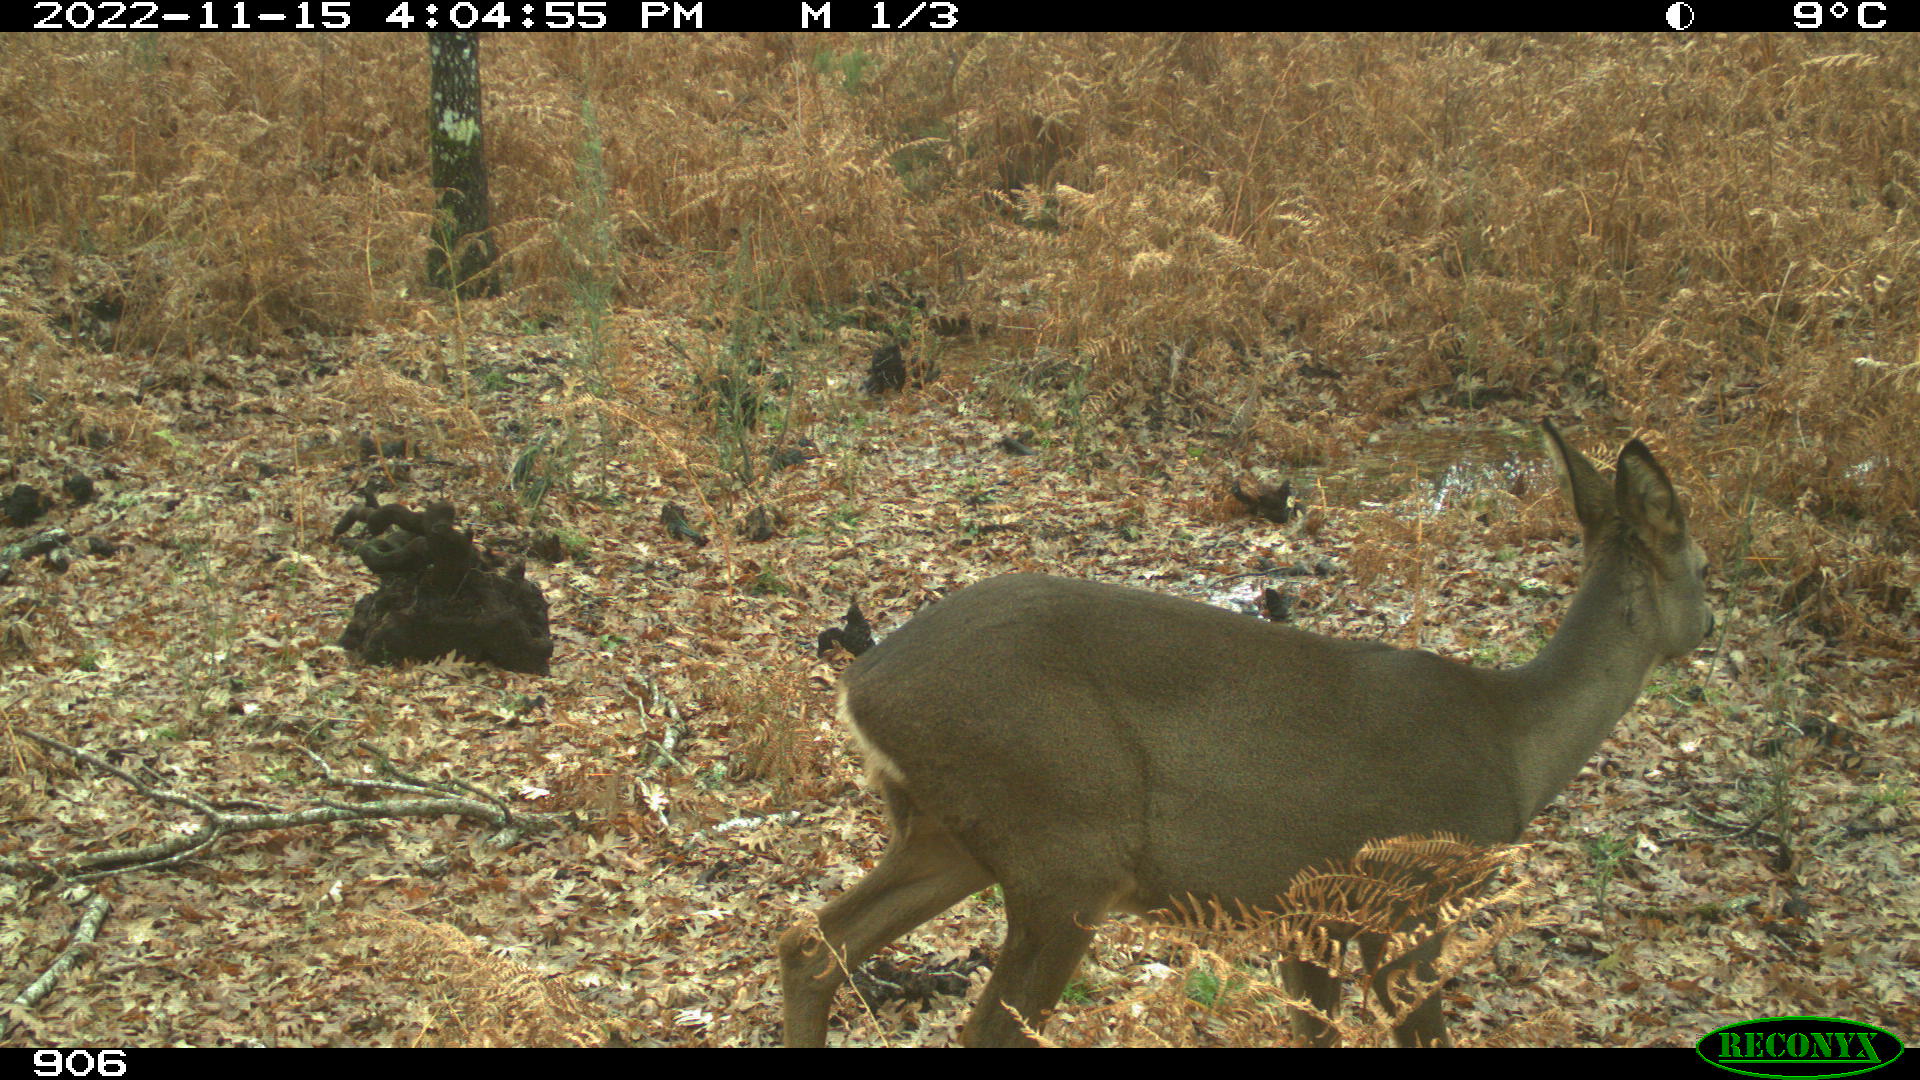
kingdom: Animalia
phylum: Chordata
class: Mammalia
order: Artiodactyla
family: Cervidae
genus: Capreolus
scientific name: Capreolus capreolus
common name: Western roe deer
